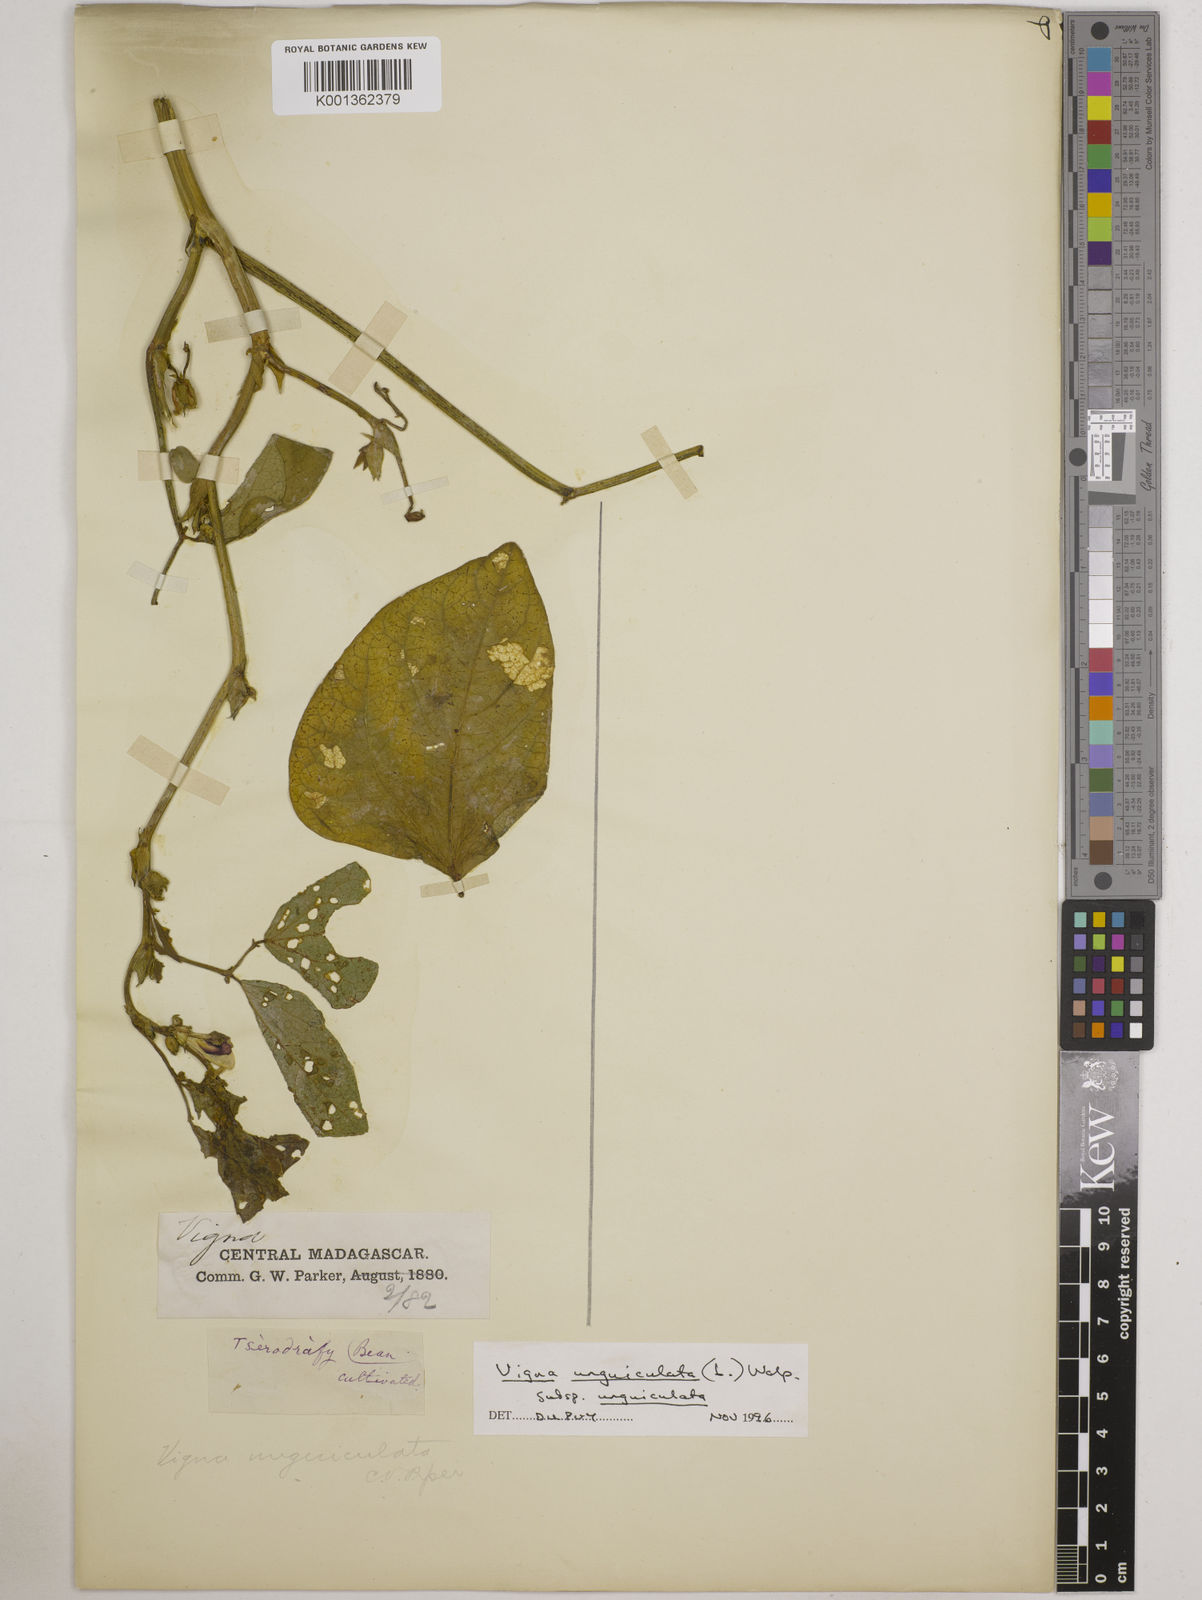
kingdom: Plantae
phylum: Tracheophyta
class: Magnoliopsida
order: Fabales
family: Fabaceae
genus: Vigna
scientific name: Vigna
